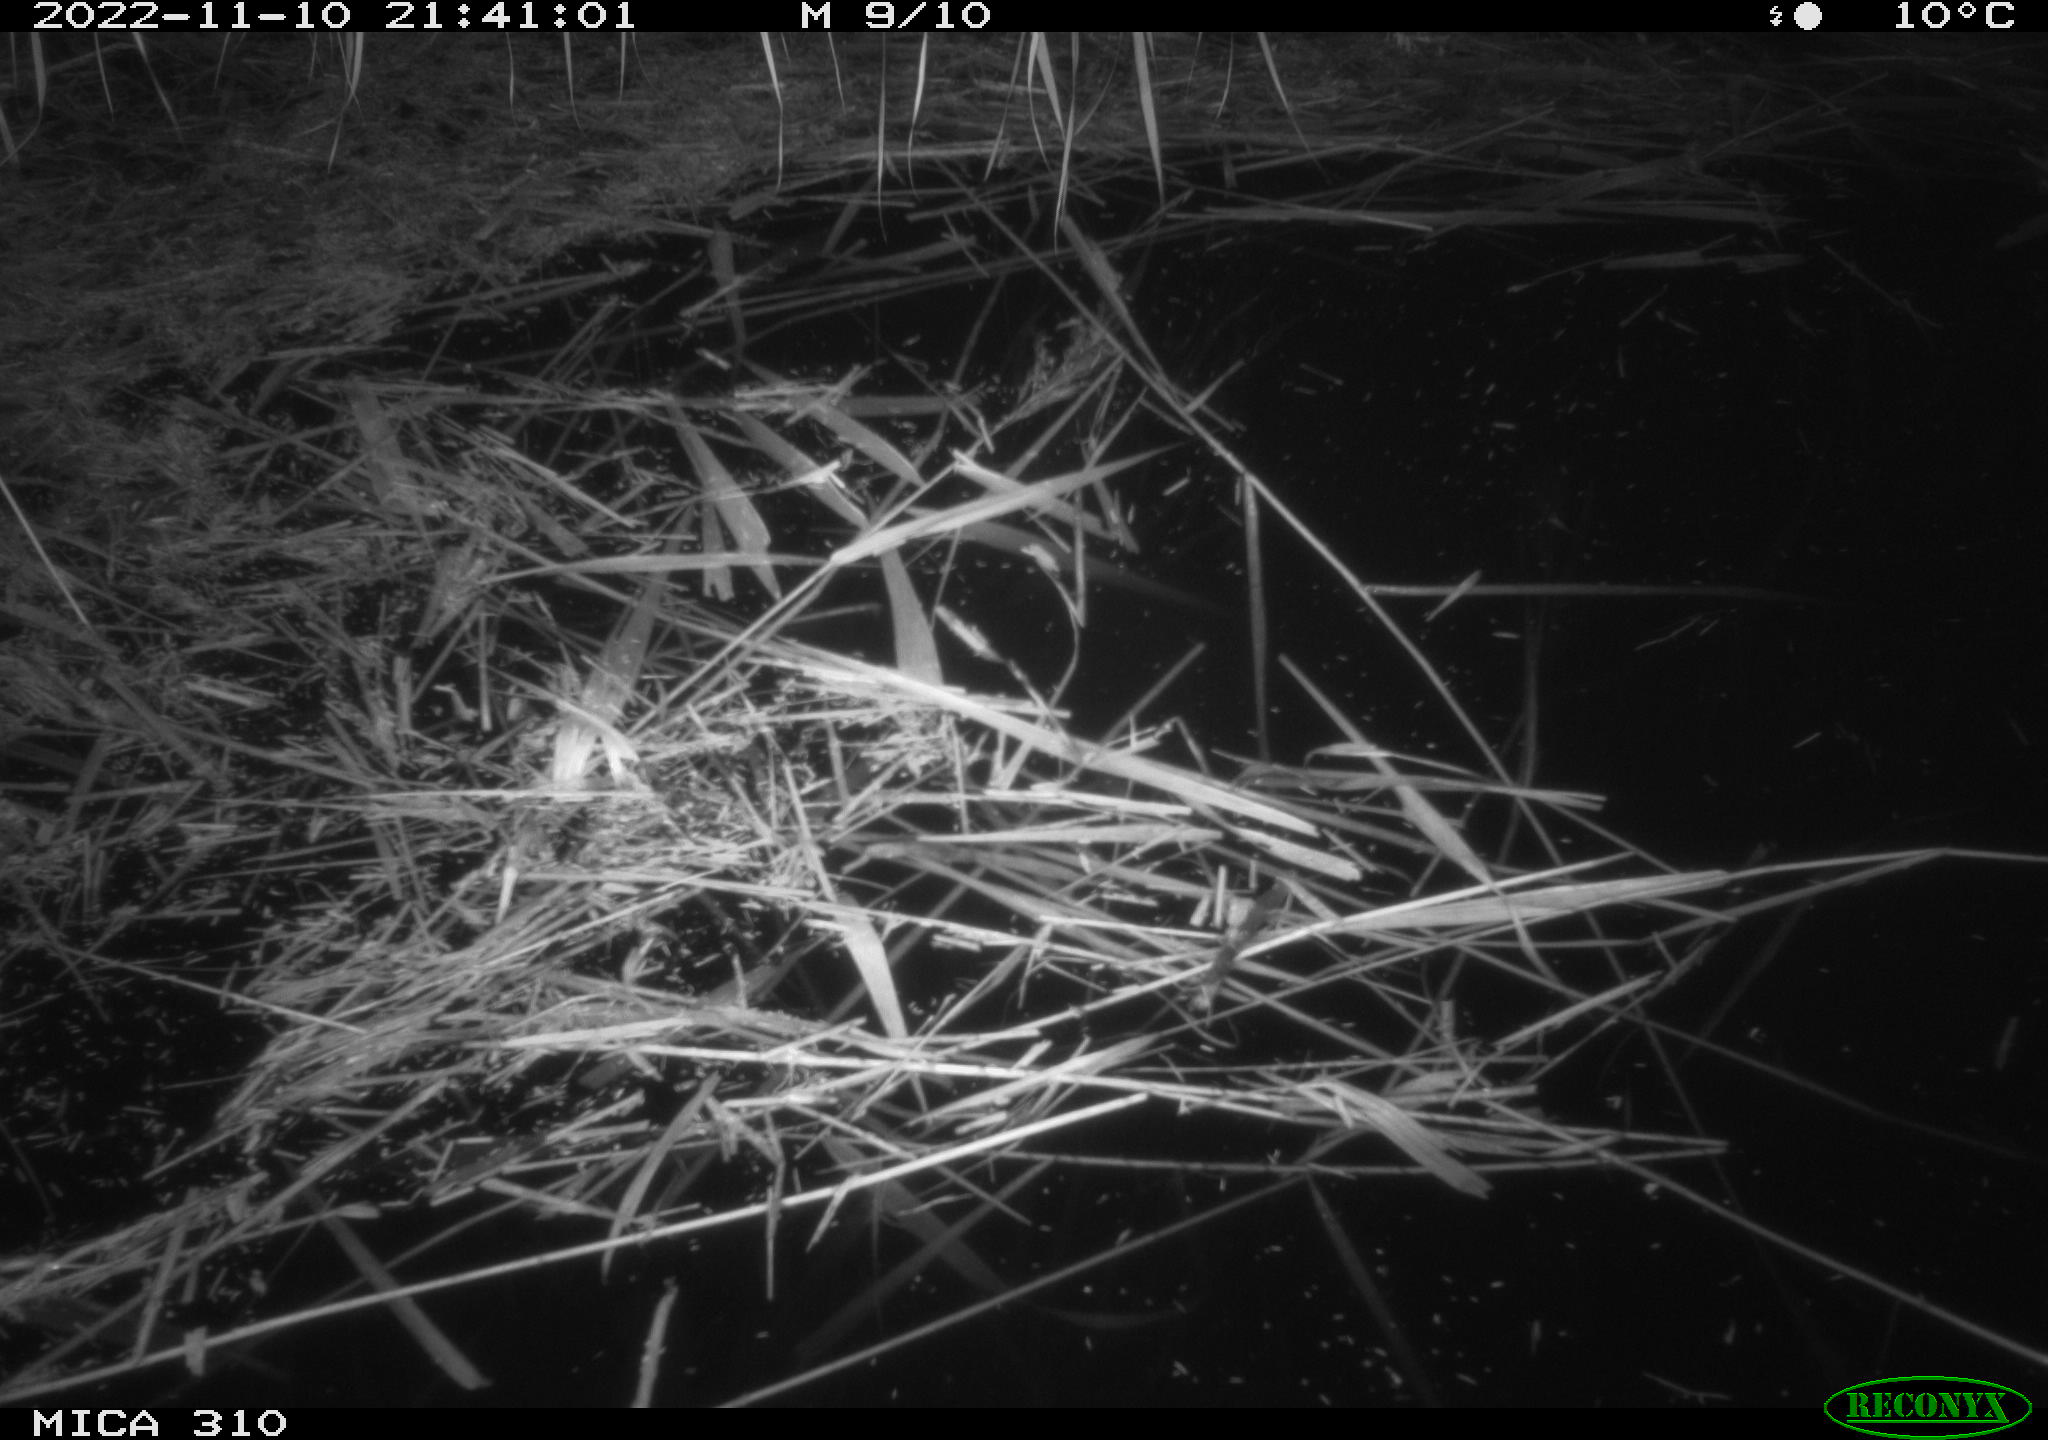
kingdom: Animalia
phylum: Chordata
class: Mammalia
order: Rodentia
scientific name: Rodentia
